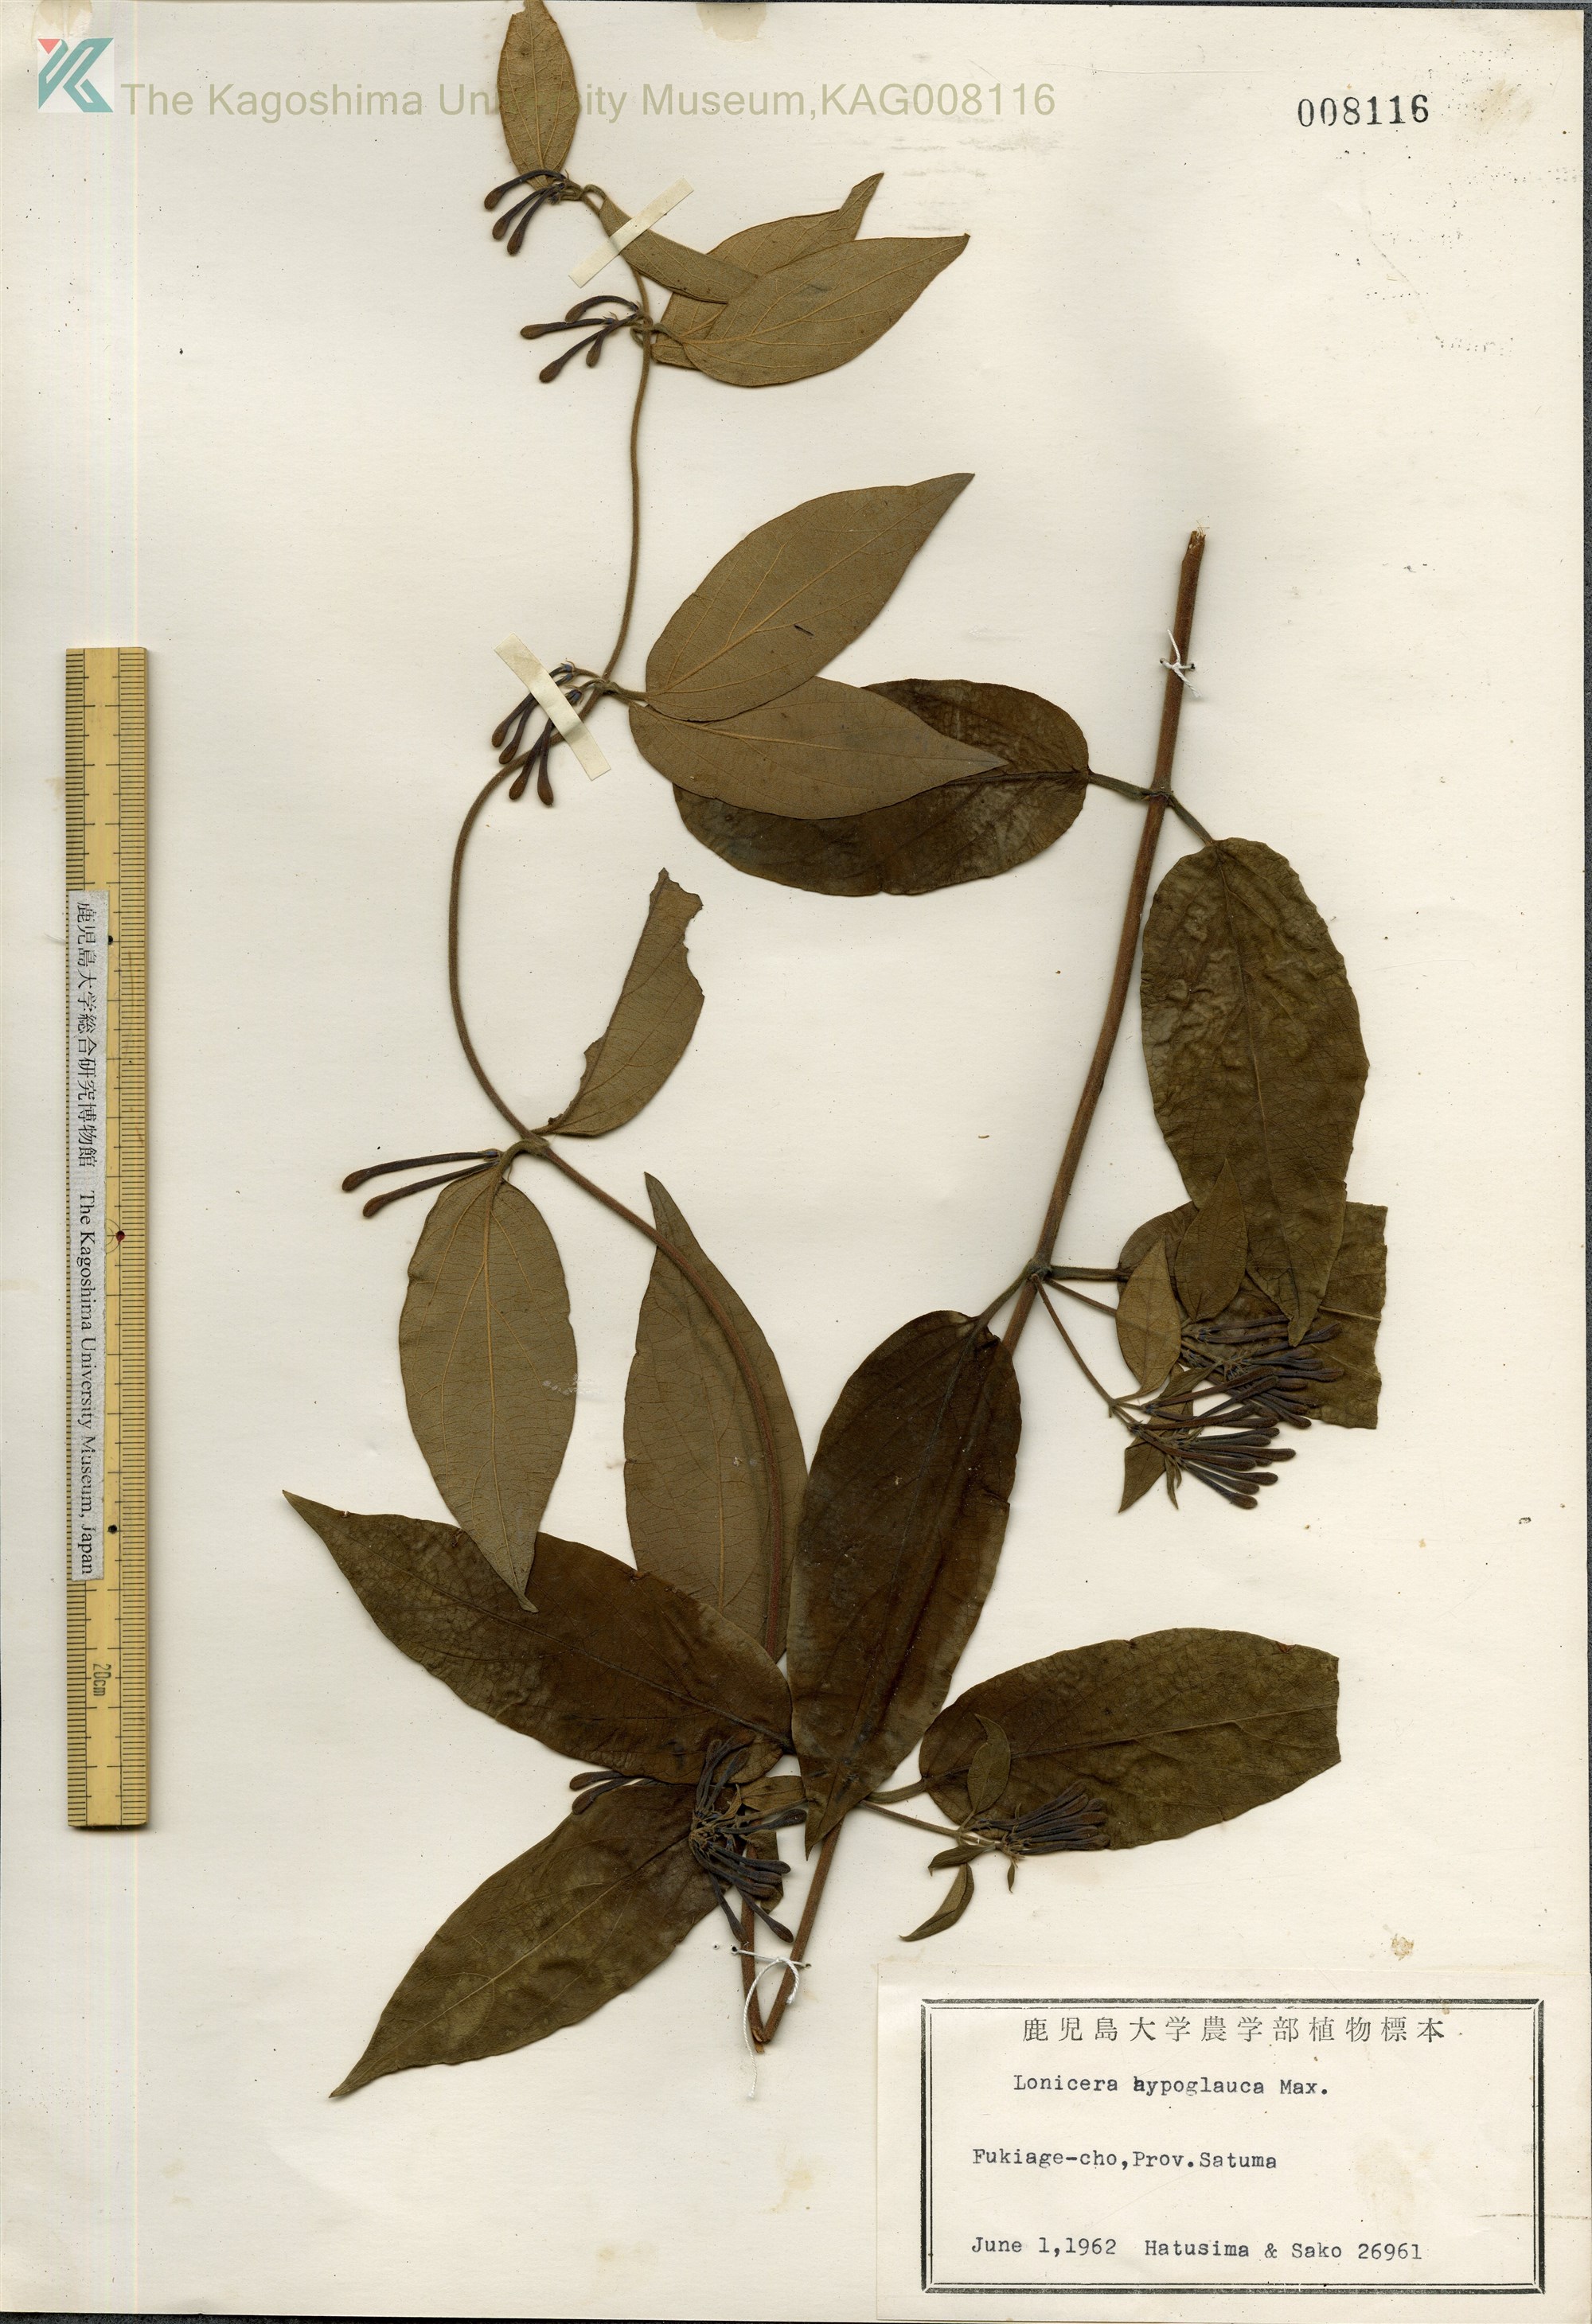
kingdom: Plantae
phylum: Tracheophyta
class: Magnoliopsida
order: Dipsacales
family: Caprifoliaceae
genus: Lonicera
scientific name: Lonicera hypoglauca
